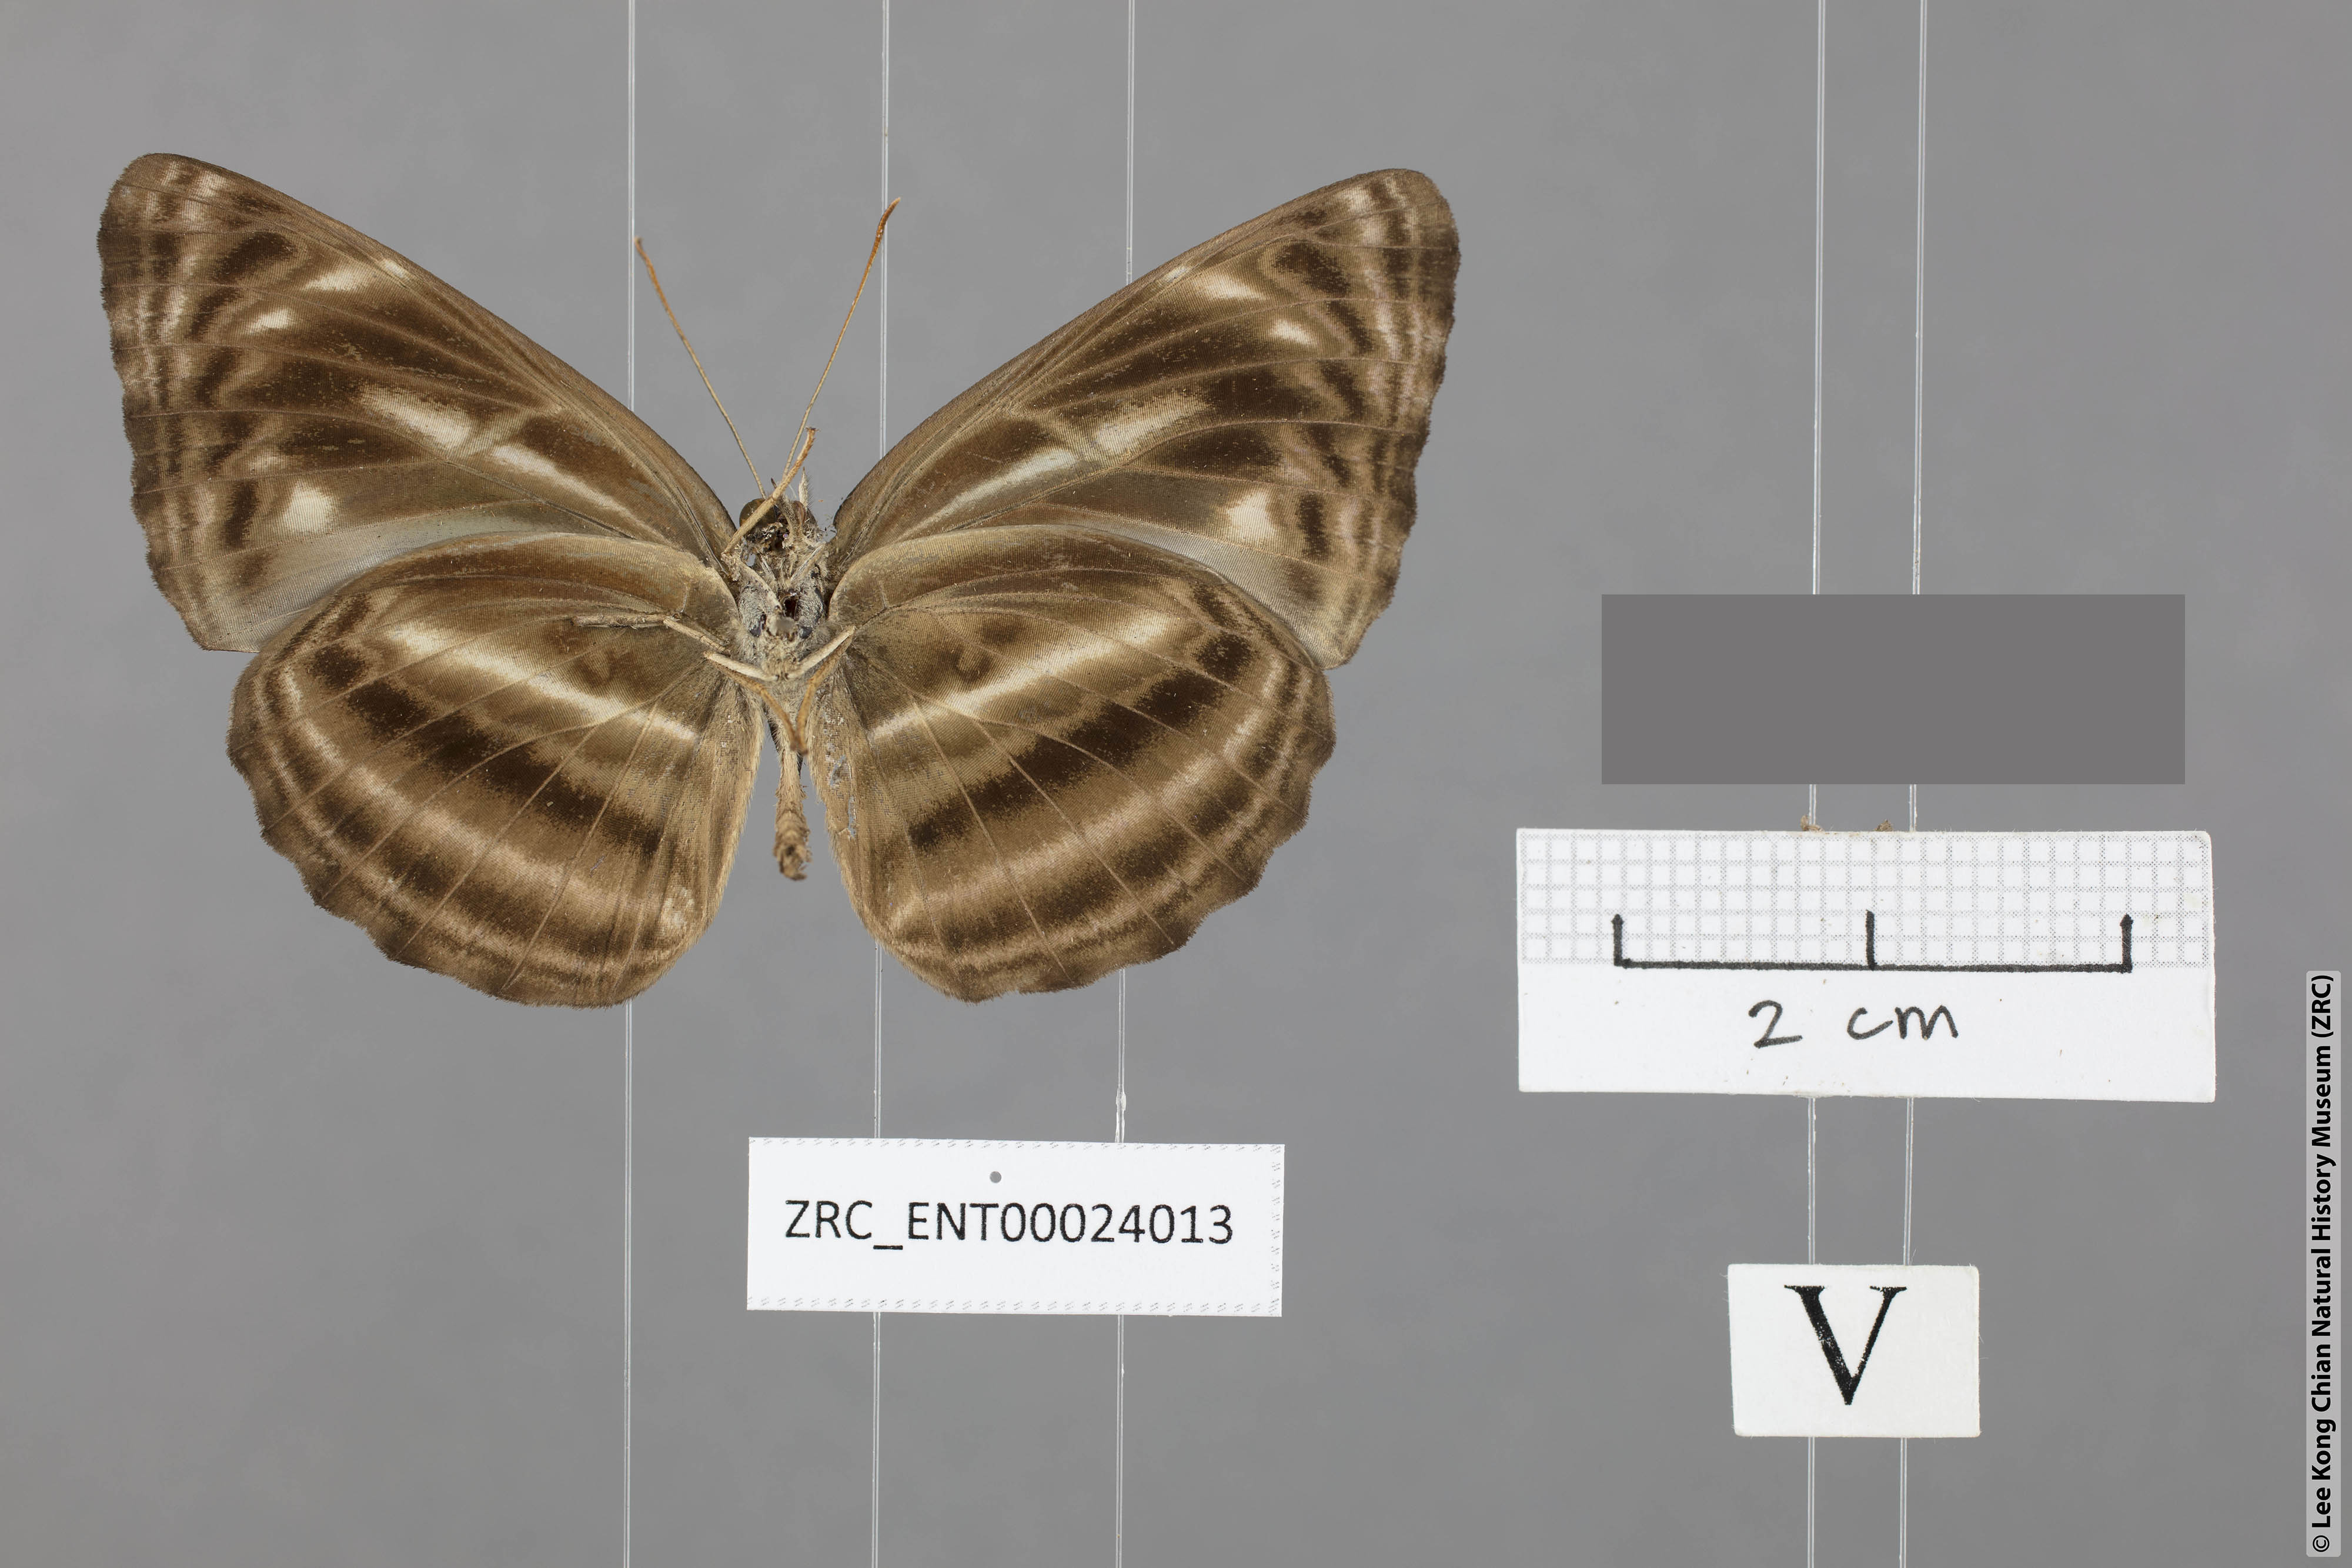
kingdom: Animalia
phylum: Arthropoda
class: Insecta
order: Lepidoptera
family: Nymphalidae
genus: Neptis
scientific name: Neptis ilira
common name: Dark dingy sailor
